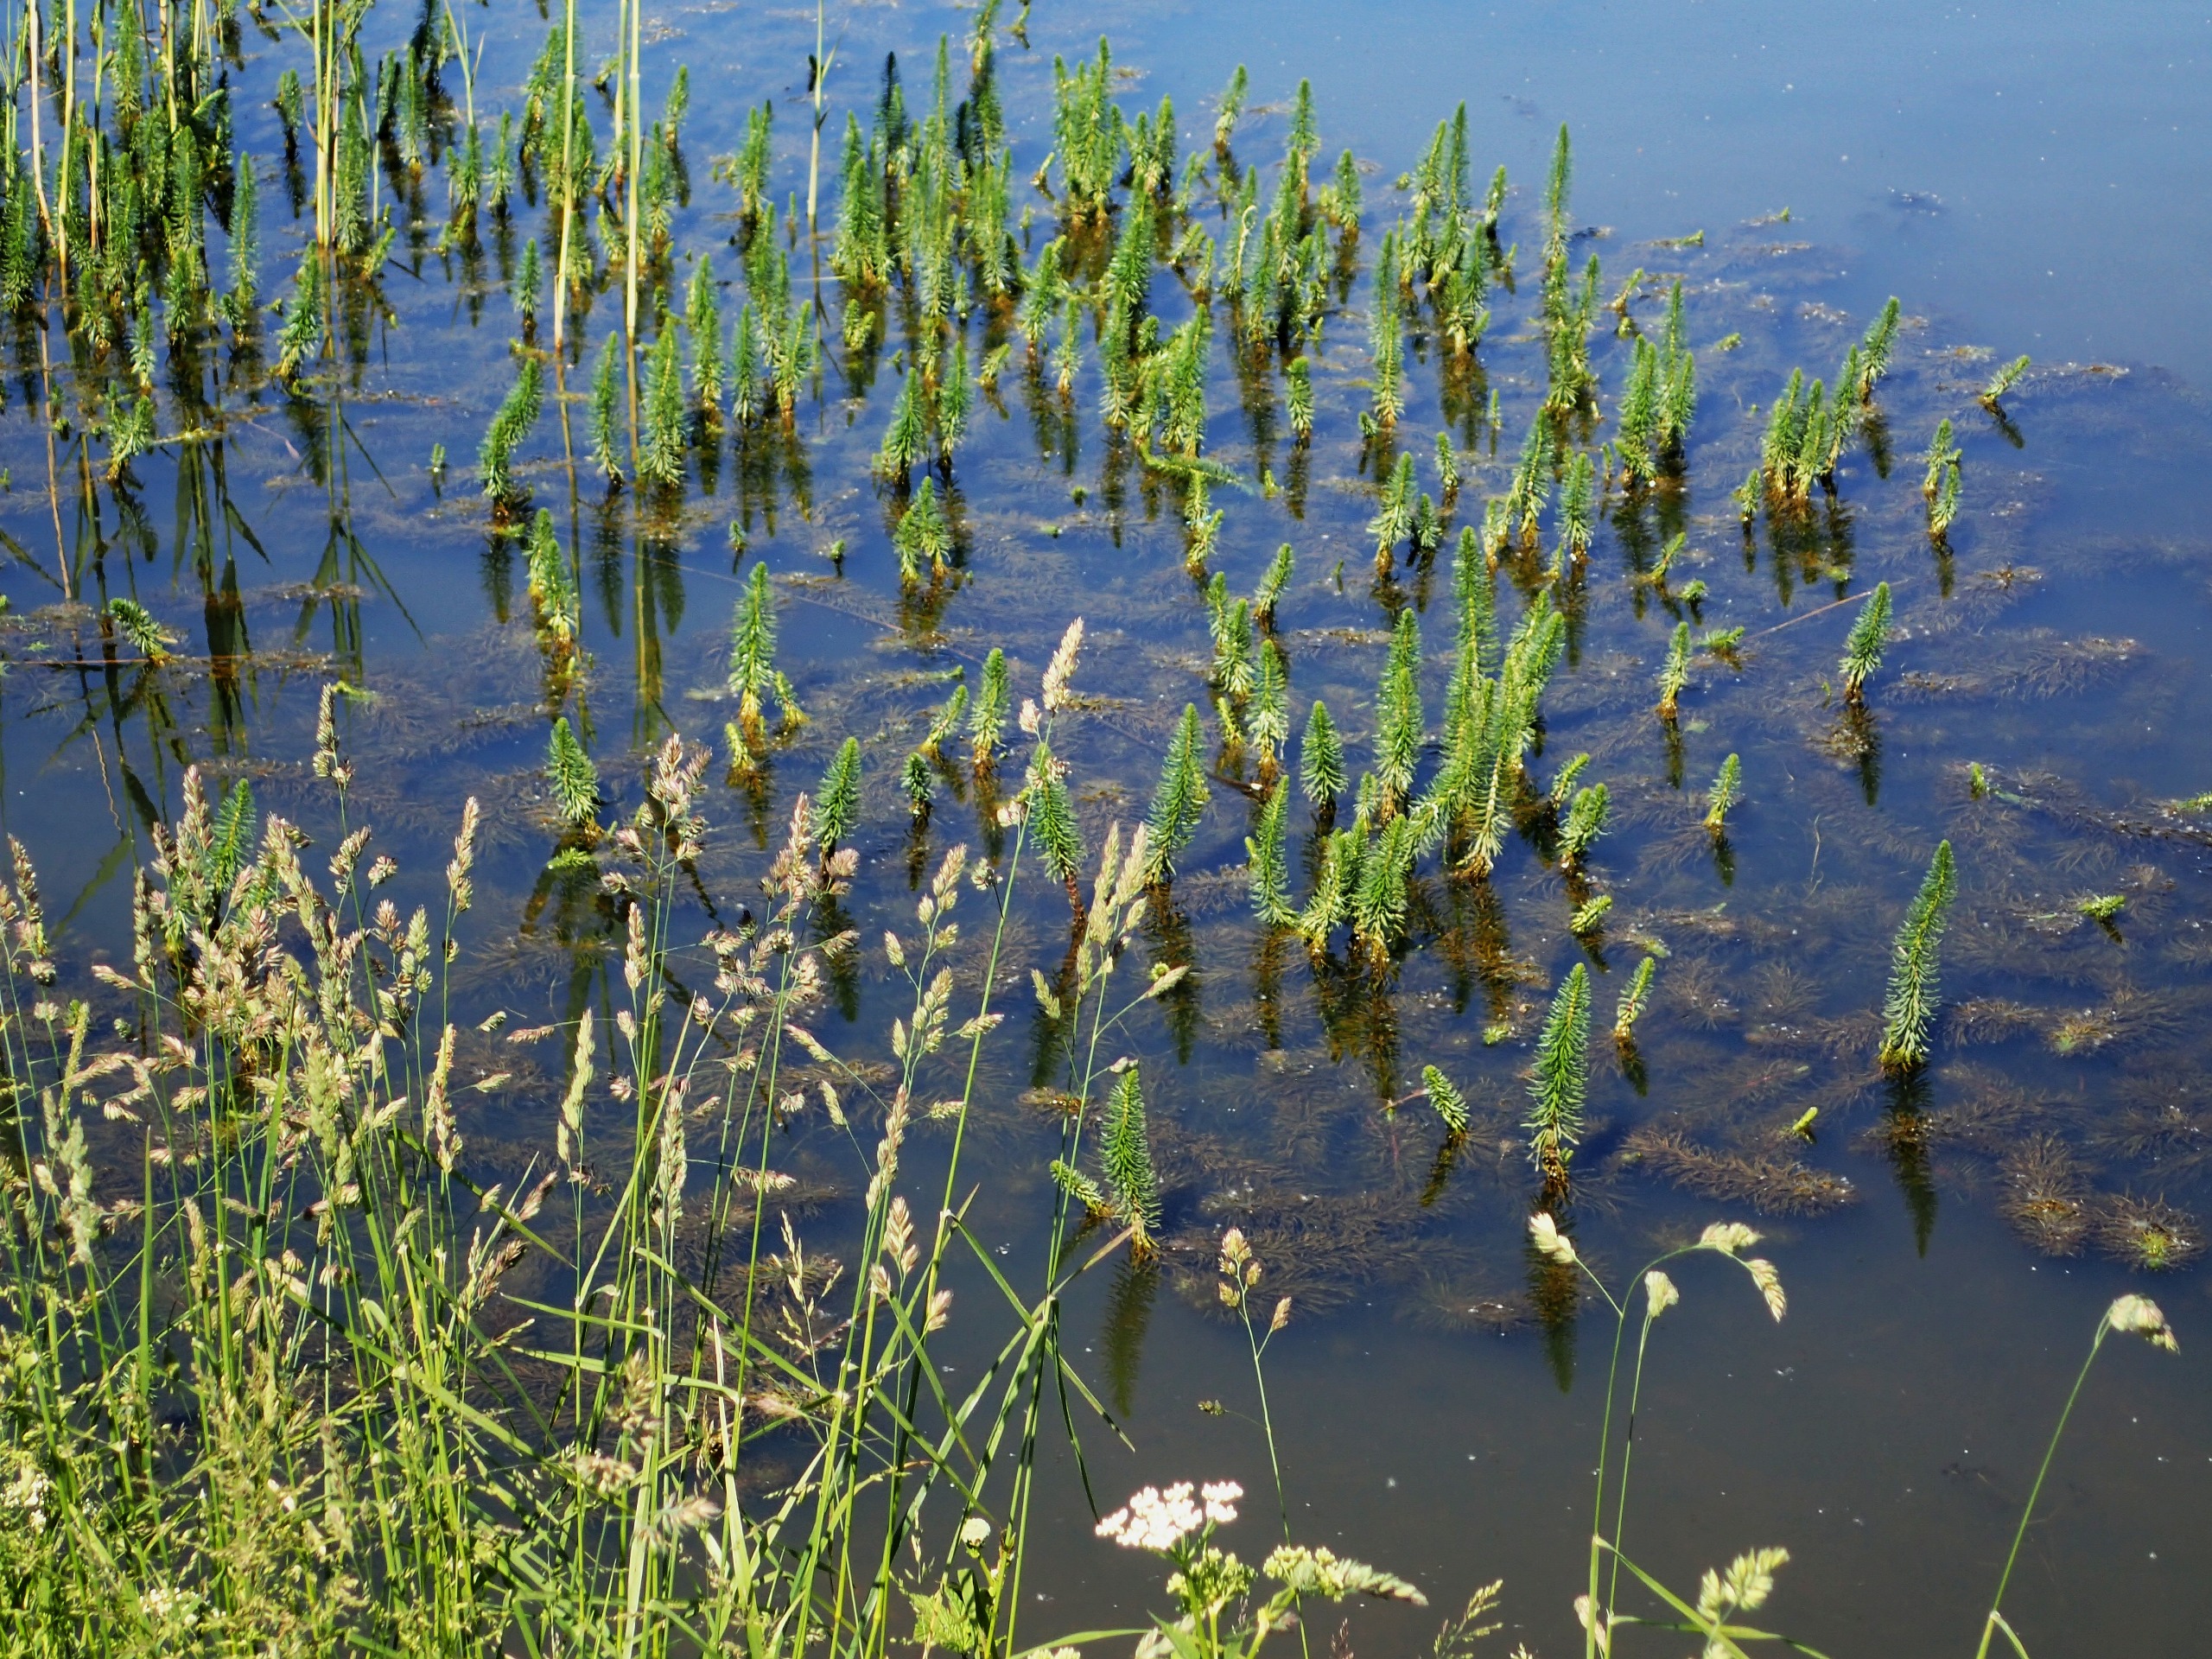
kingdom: Plantae
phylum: Tracheophyta
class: Magnoliopsida
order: Lamiales
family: Plantaginaceae
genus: Hippuris
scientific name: Hippuris vulgaris
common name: Vandspir
